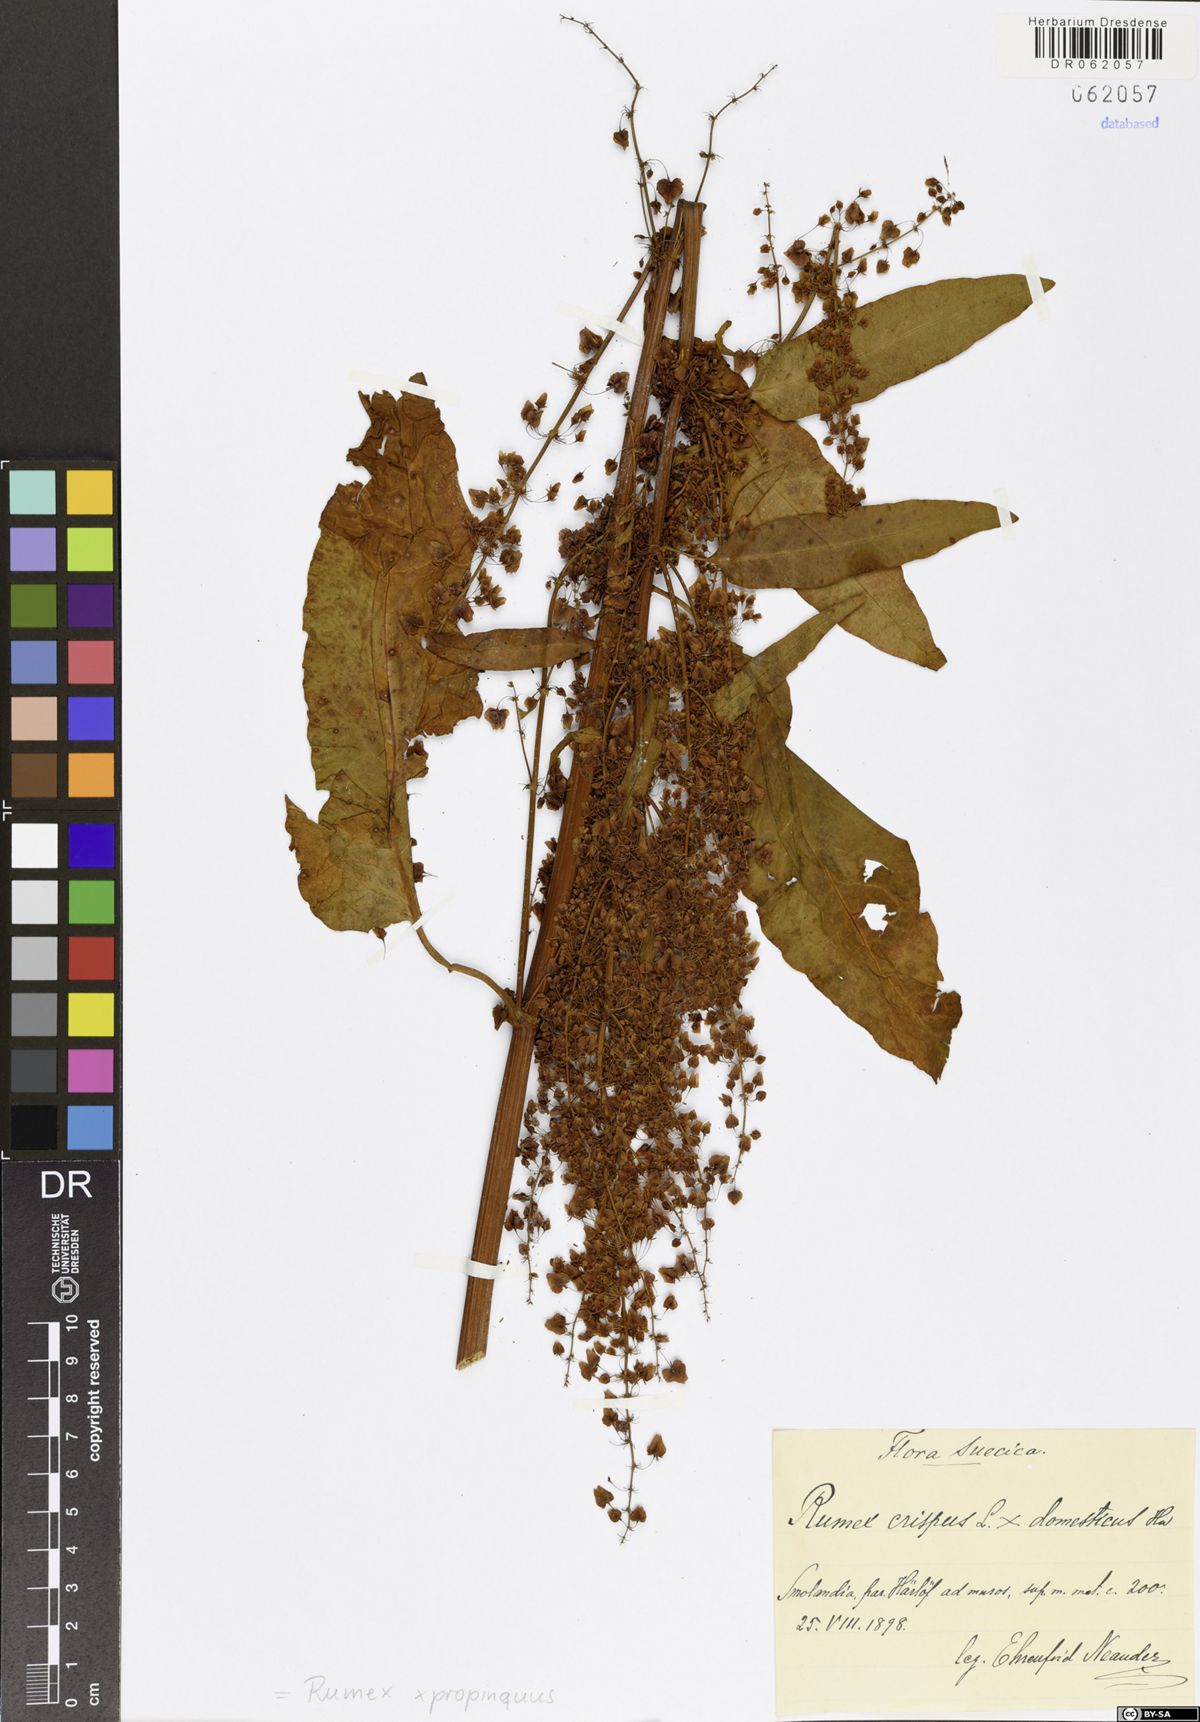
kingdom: Plantae
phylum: Tracheophyta
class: Magnoliopsida
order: Caryophyllales
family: Polygonaceae
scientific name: Polygonaceae
